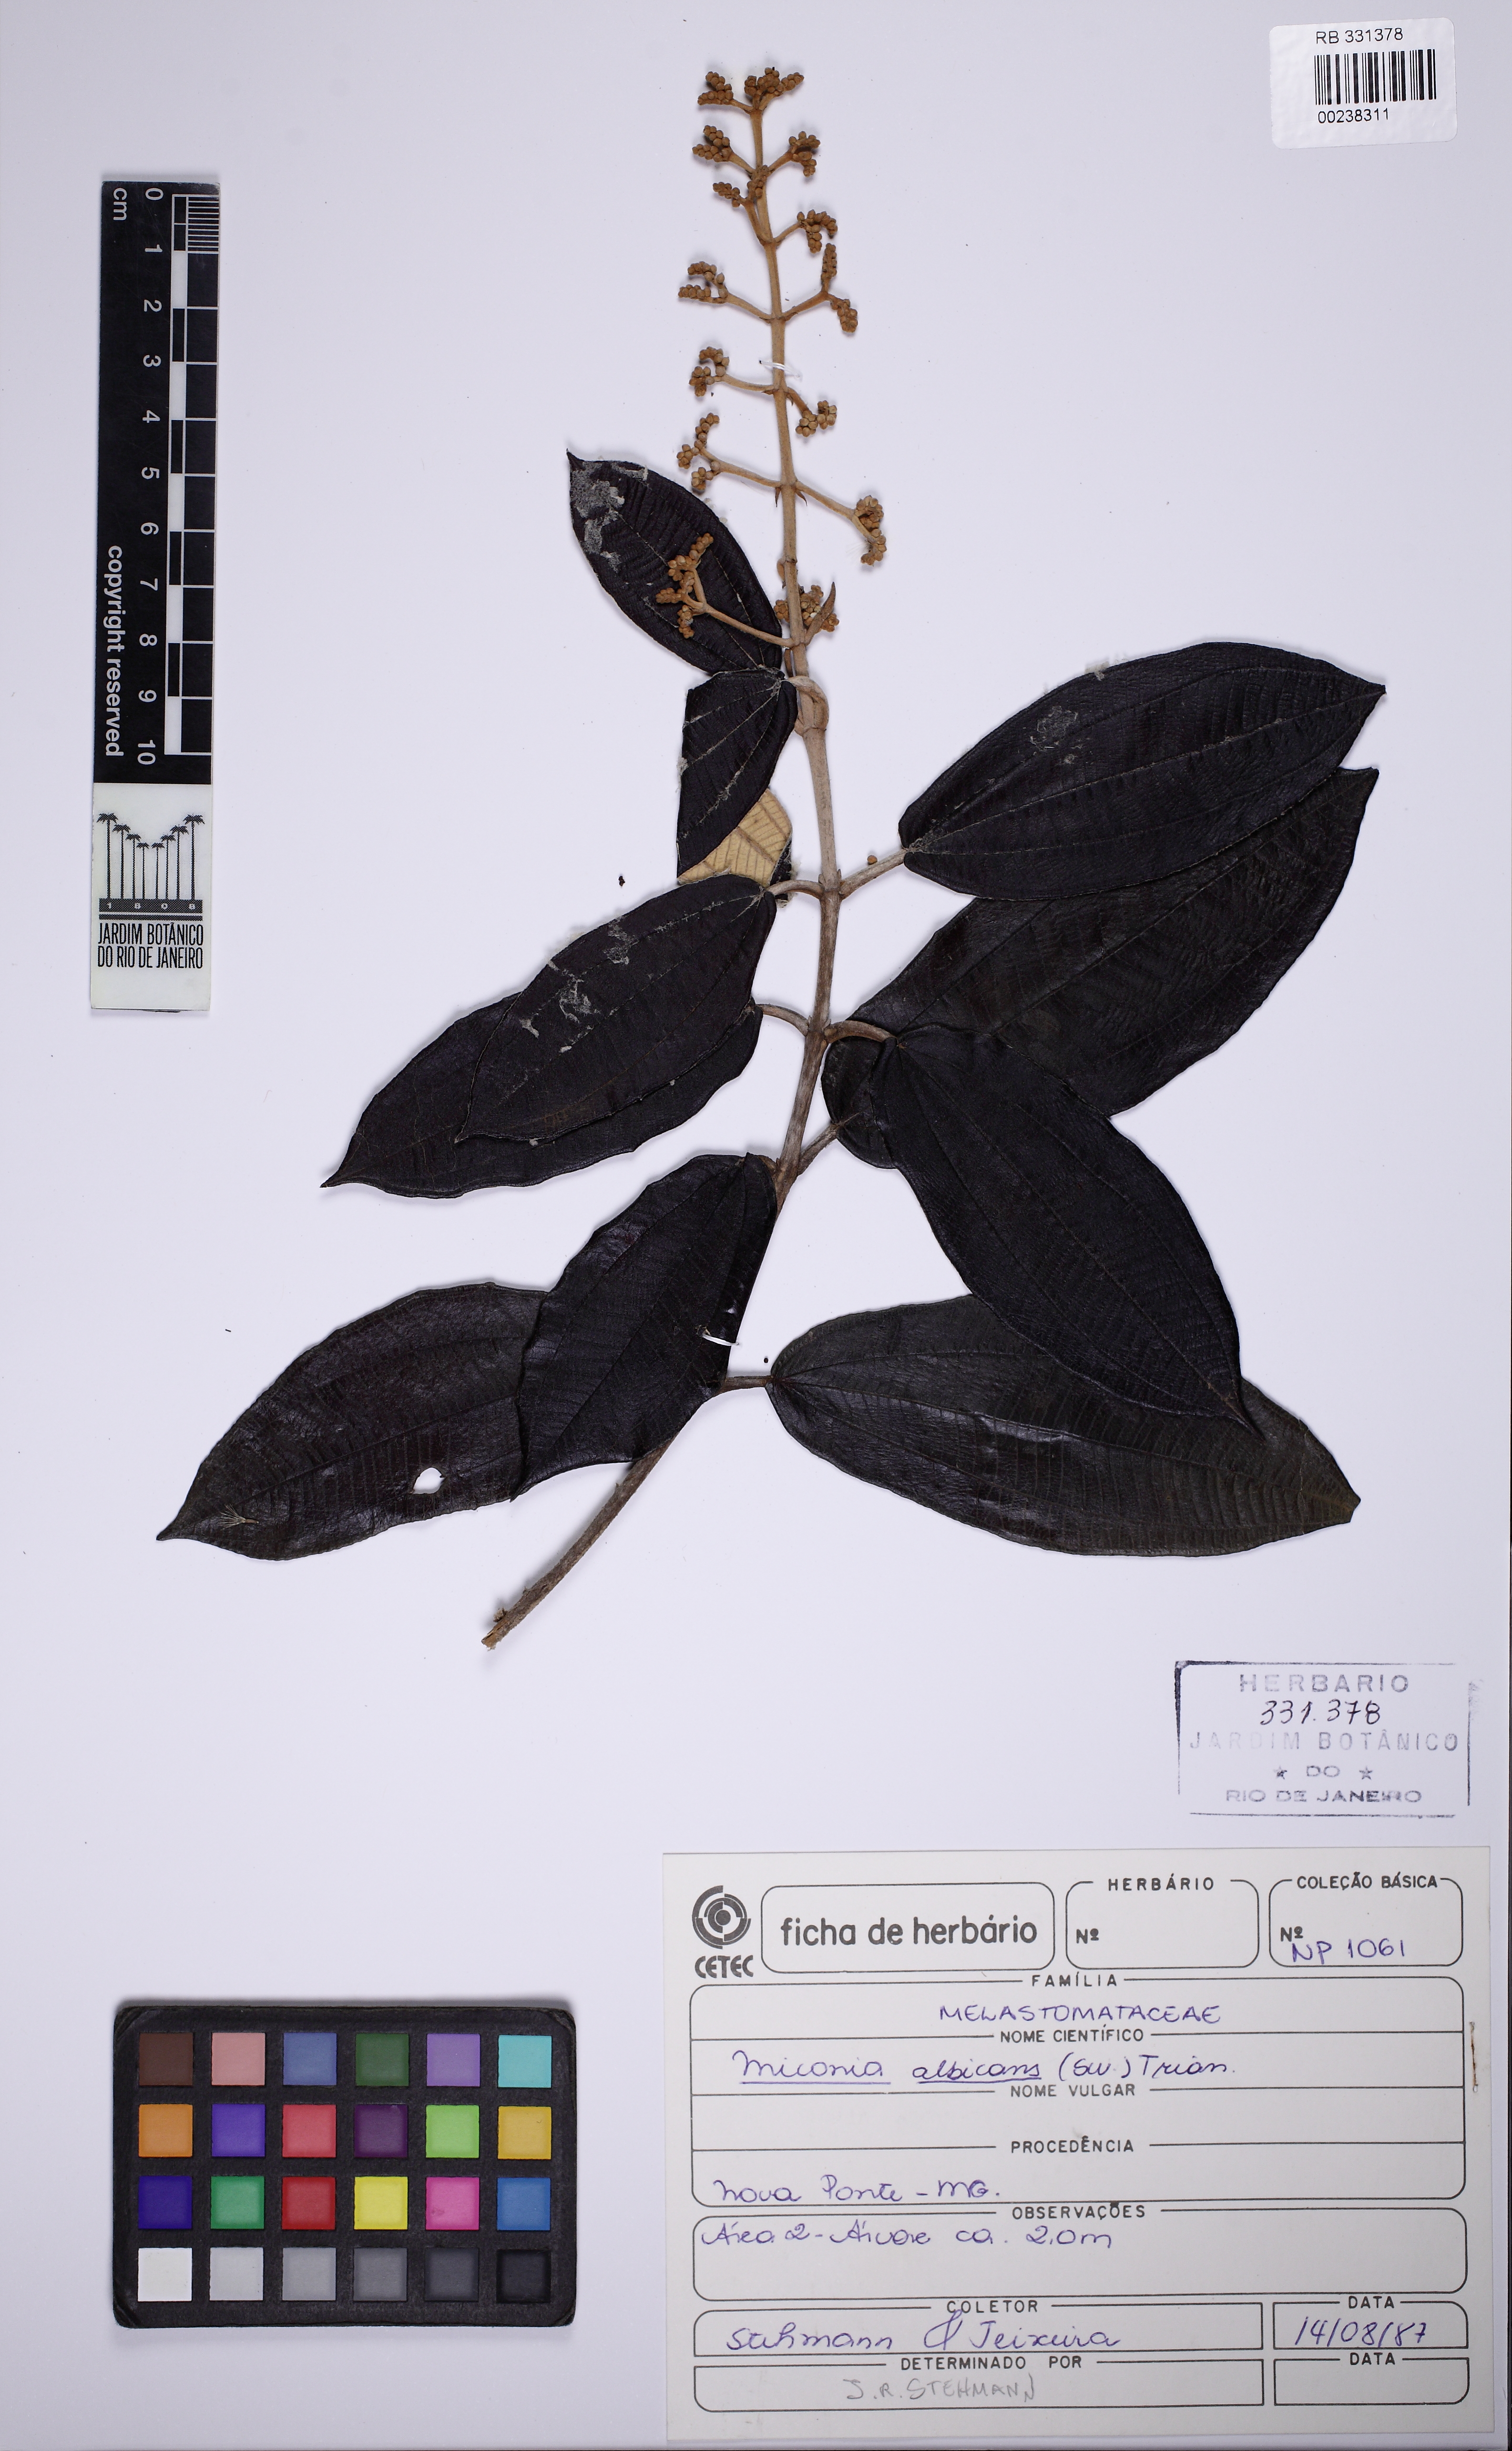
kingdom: Plantae
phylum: Tracheophyta
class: Magnoliopsida
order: Myrtales
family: Melastomataceae
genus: Miconia
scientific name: Miconia albicans
